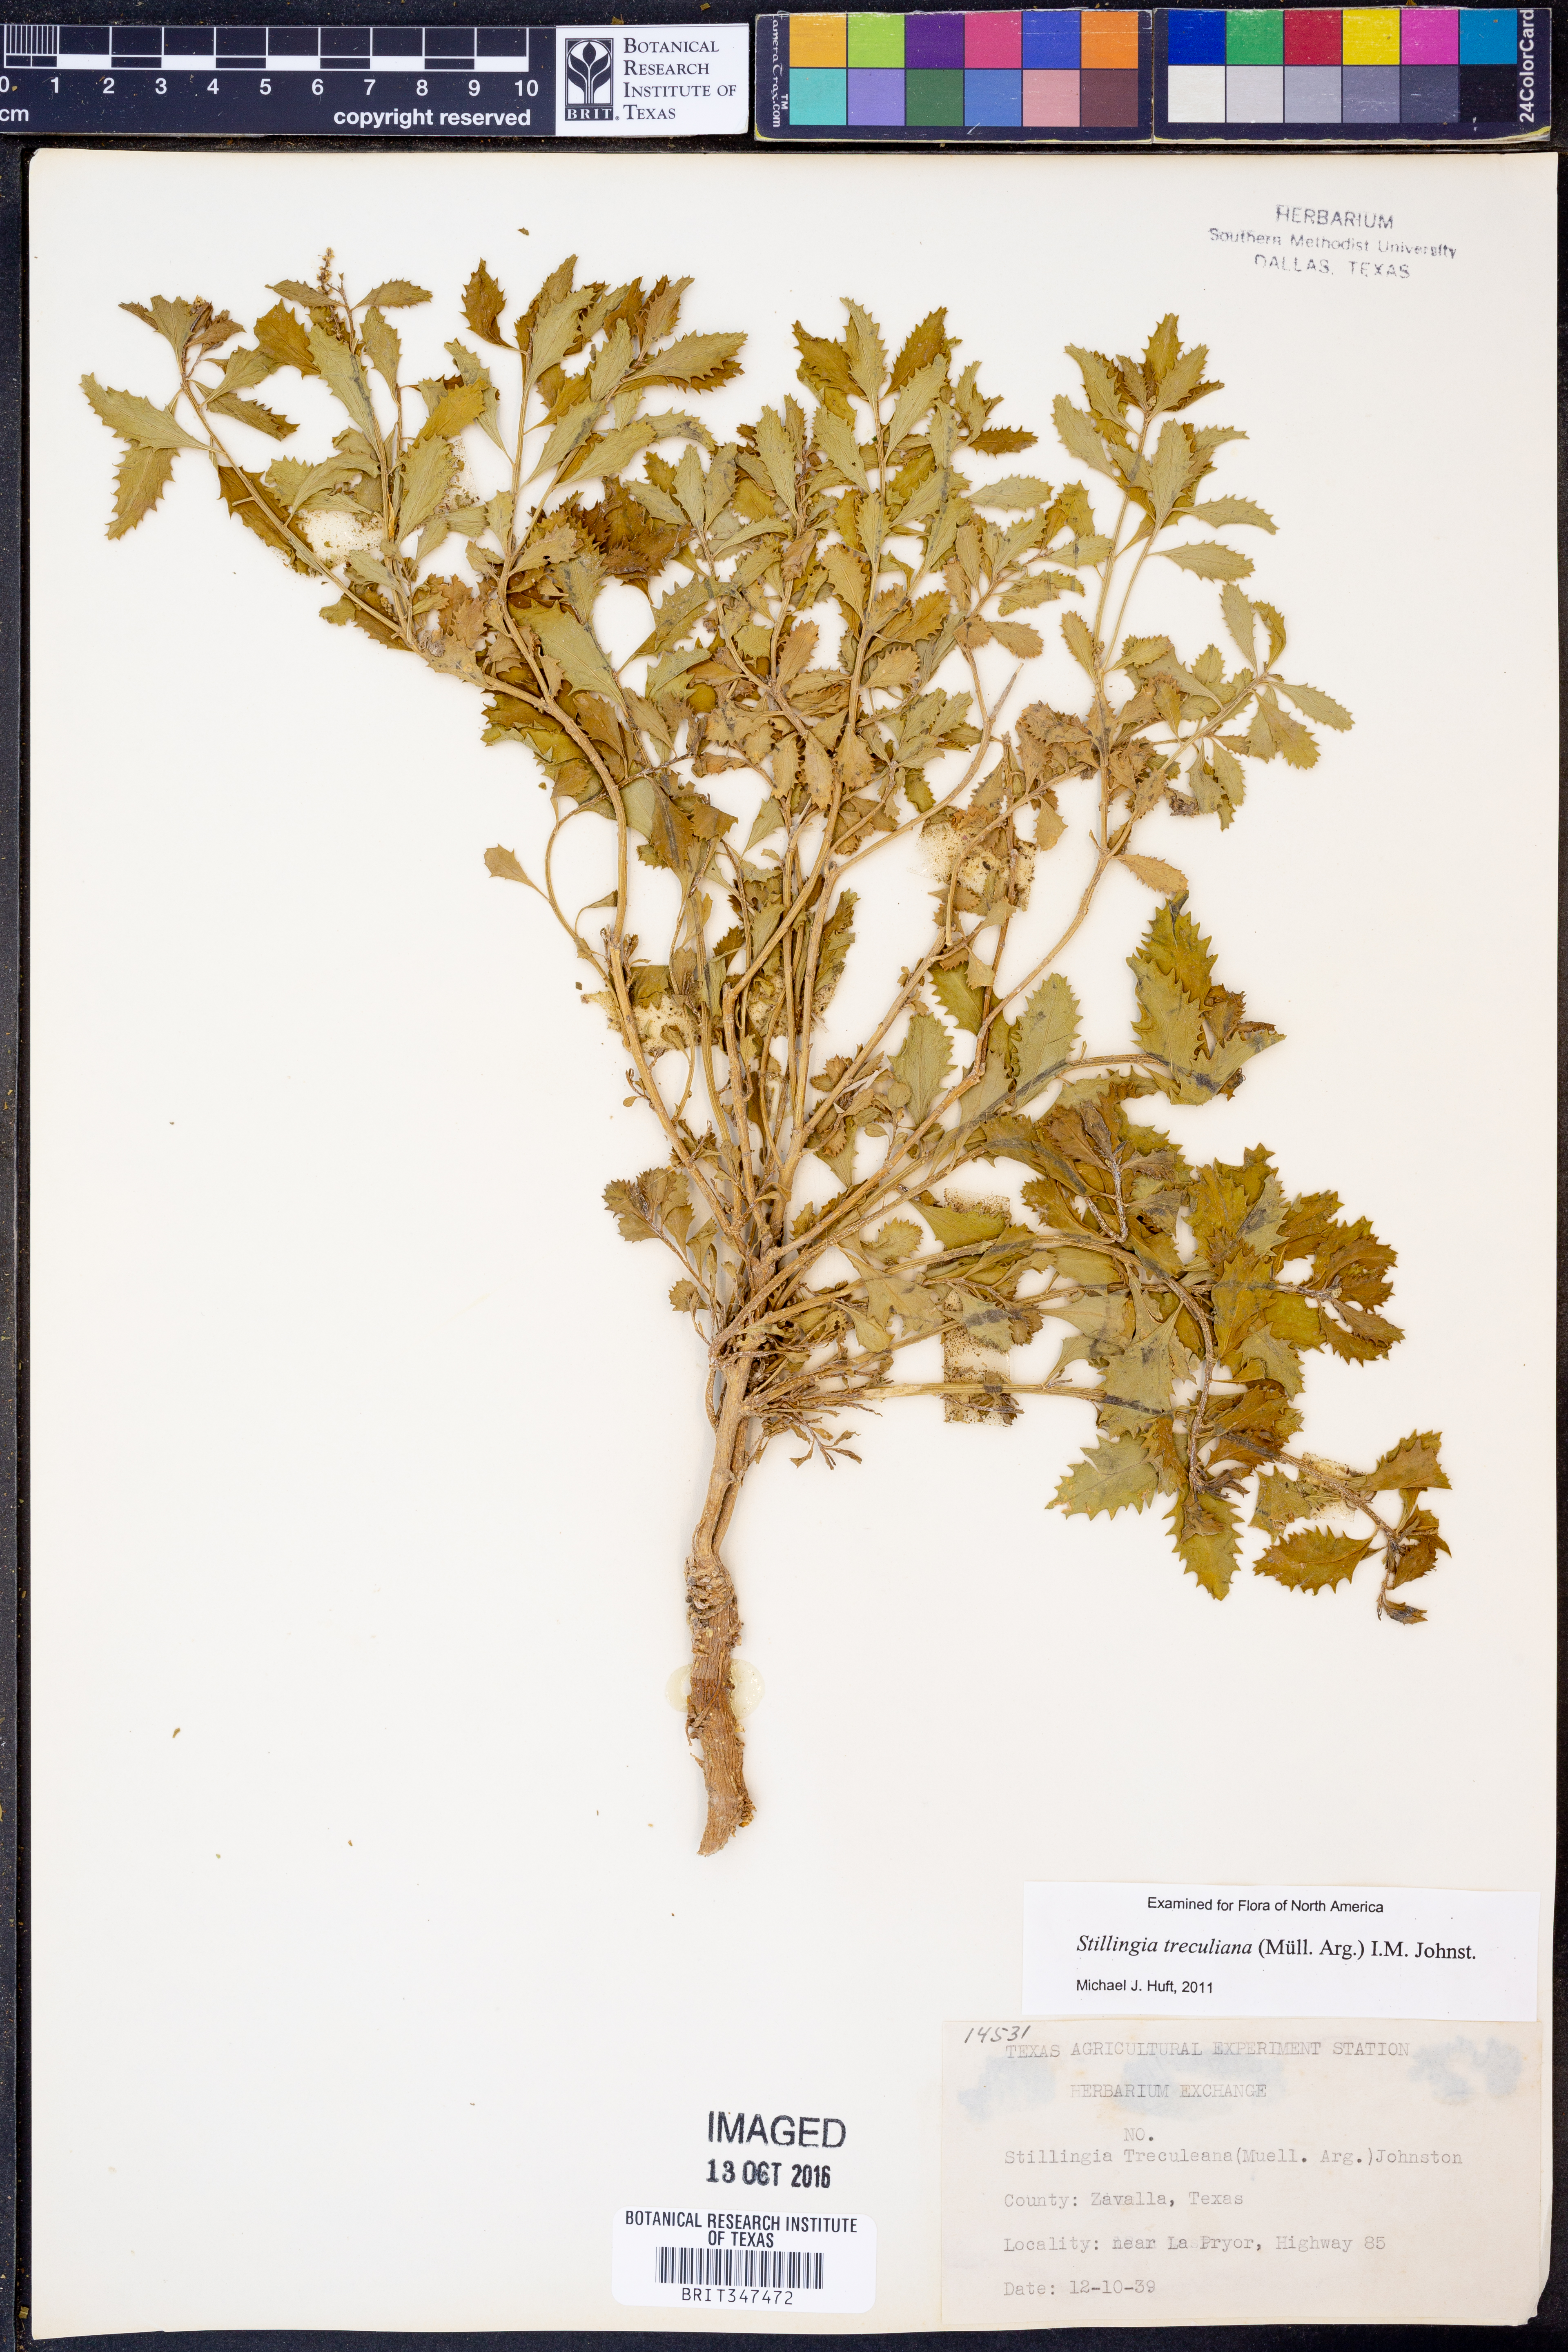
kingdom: Plantae
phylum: Tracheophyta
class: Magnoliopsida
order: Malpighiales
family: Euphorbiaceae
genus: Stillingia
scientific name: Stillingia treculiana
